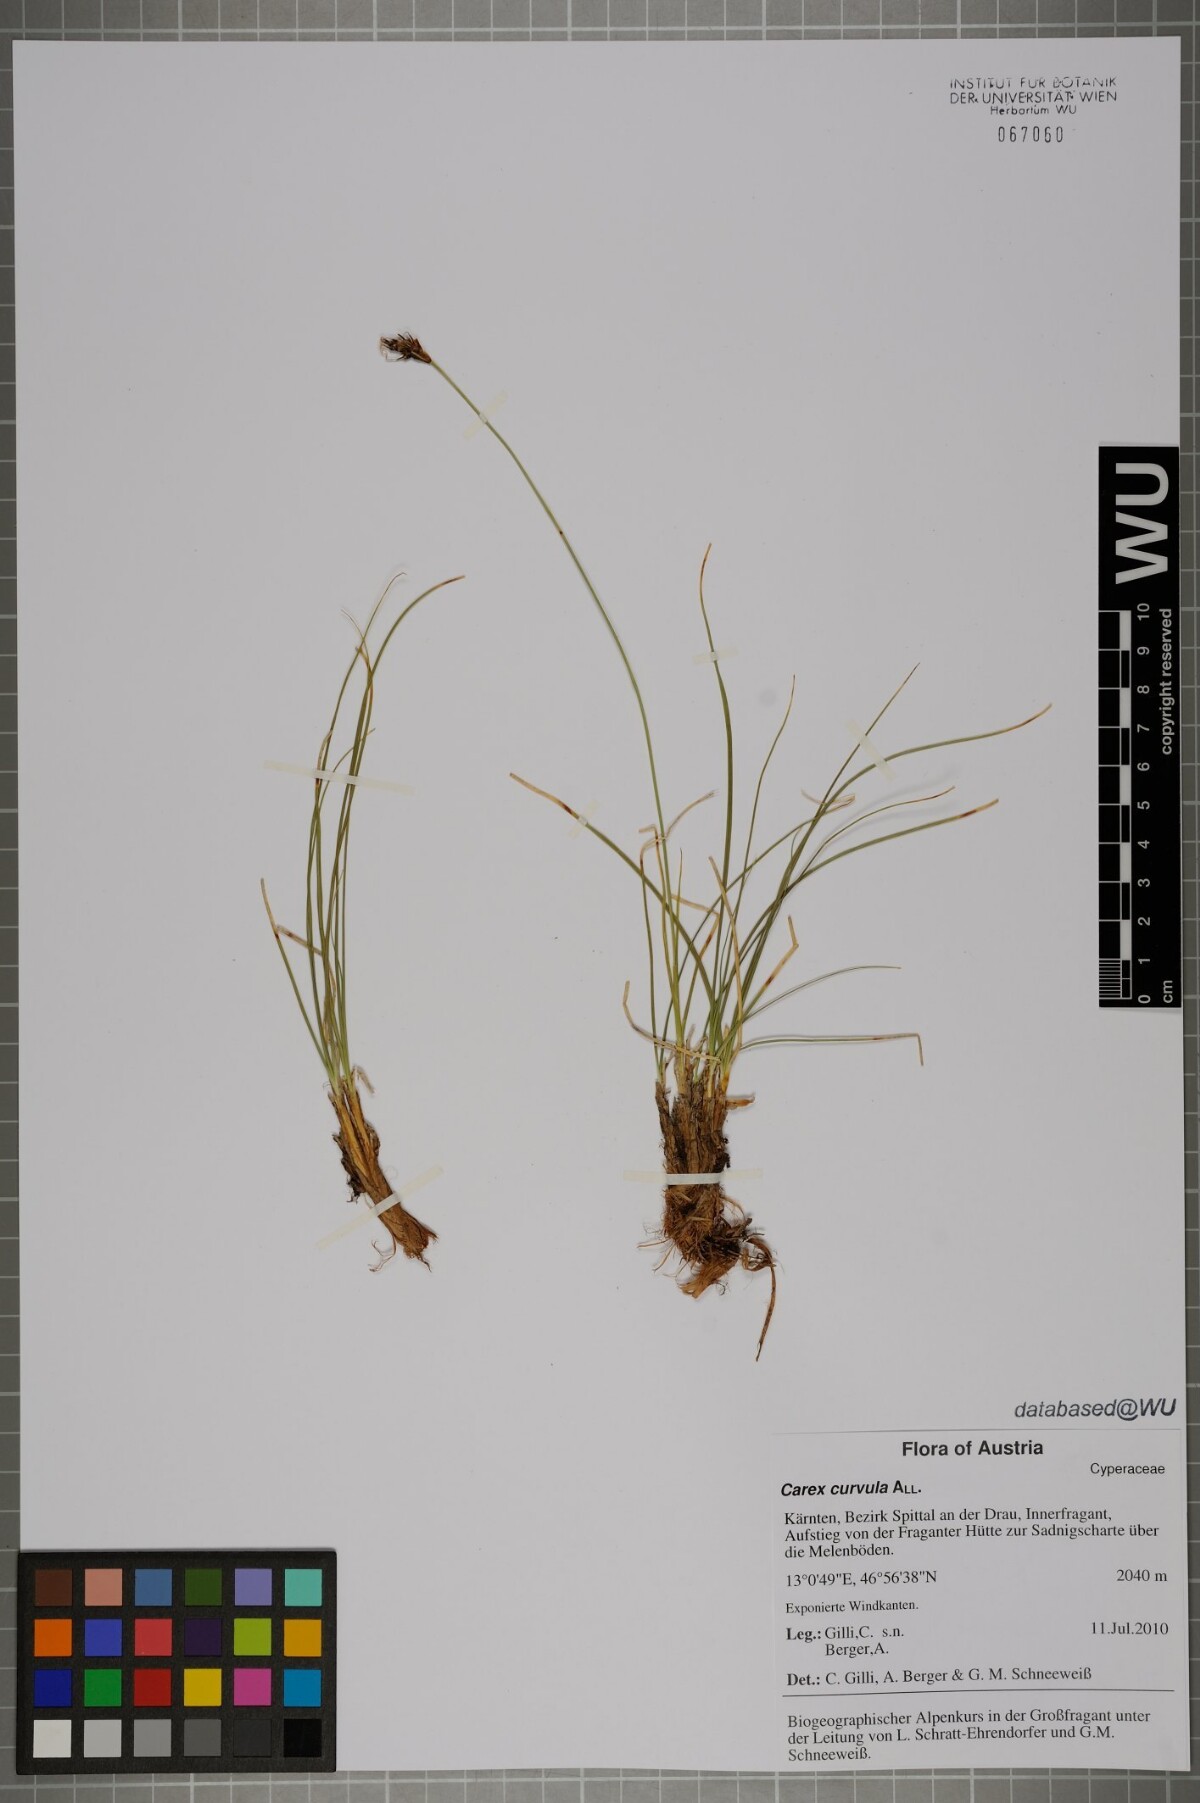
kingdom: Plantae
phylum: Tracheophyta
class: Liliopsida
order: Poales
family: Cyperaceae
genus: Carex
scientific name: Carex curvula
